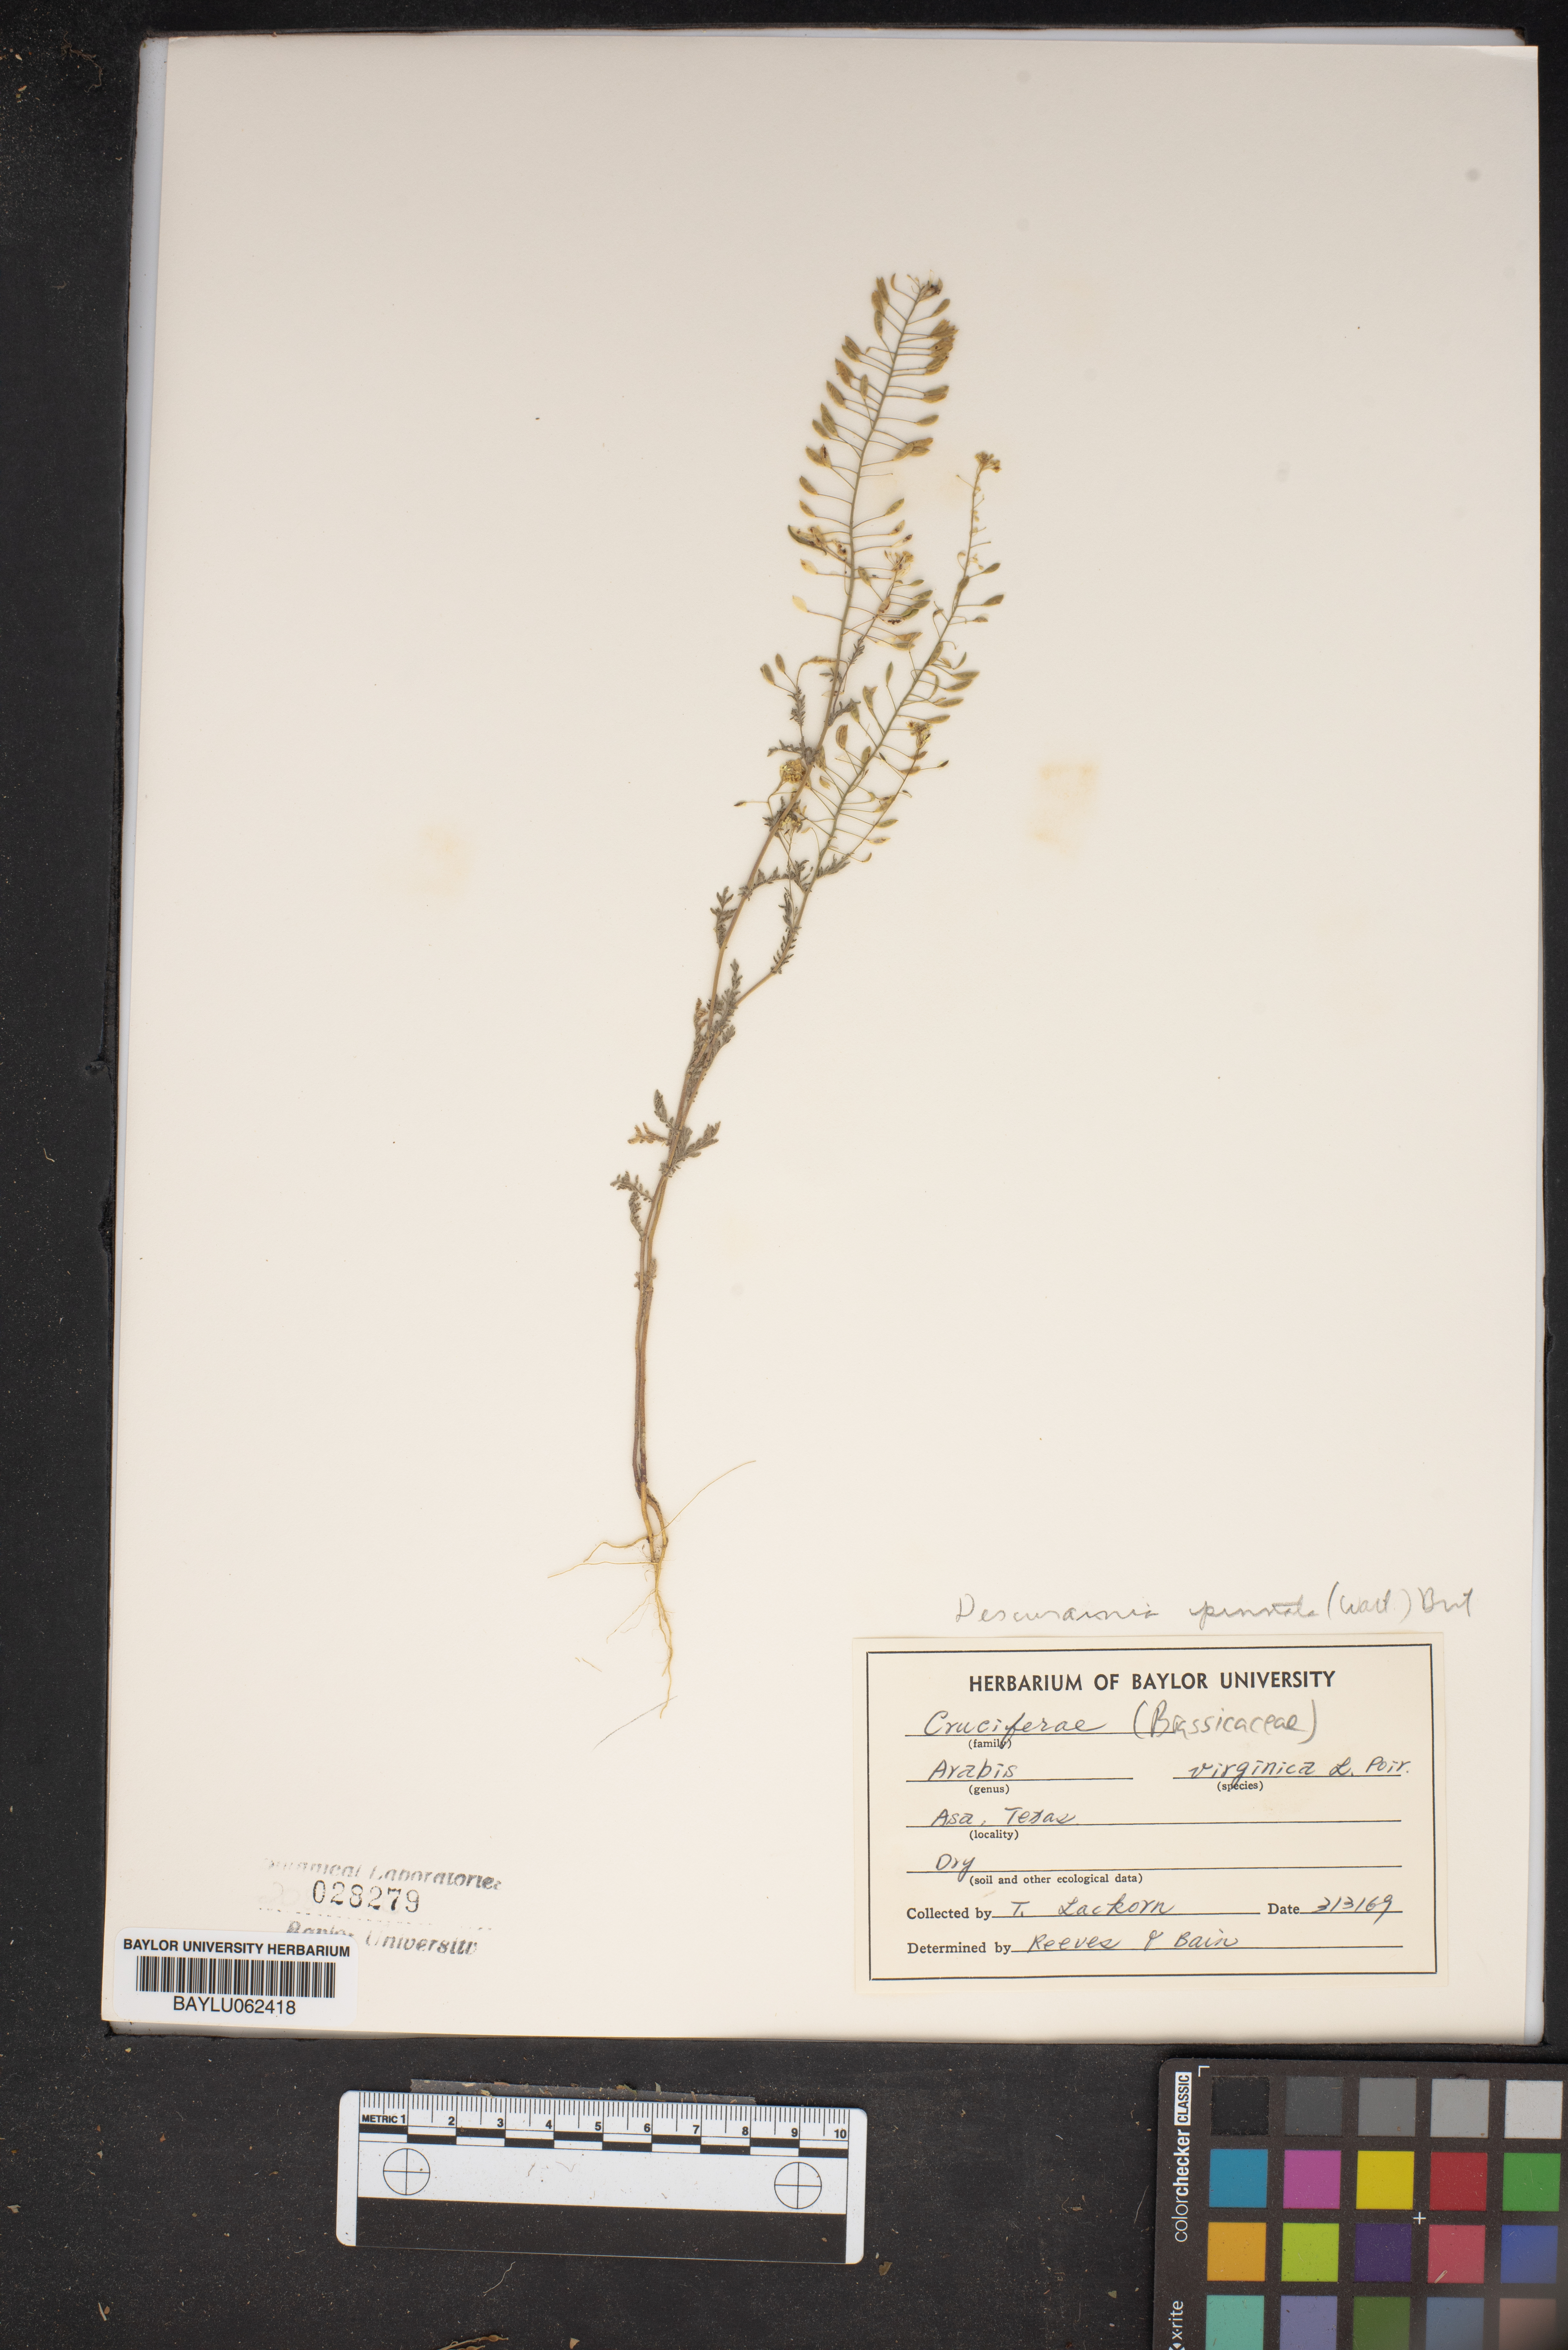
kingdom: Plantae
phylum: Tracheophyta
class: Magnoliopsida
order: Brassicales
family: Brassicaceae
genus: Descurainia
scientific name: Descurainia pinnata
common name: Western tansy mustard
